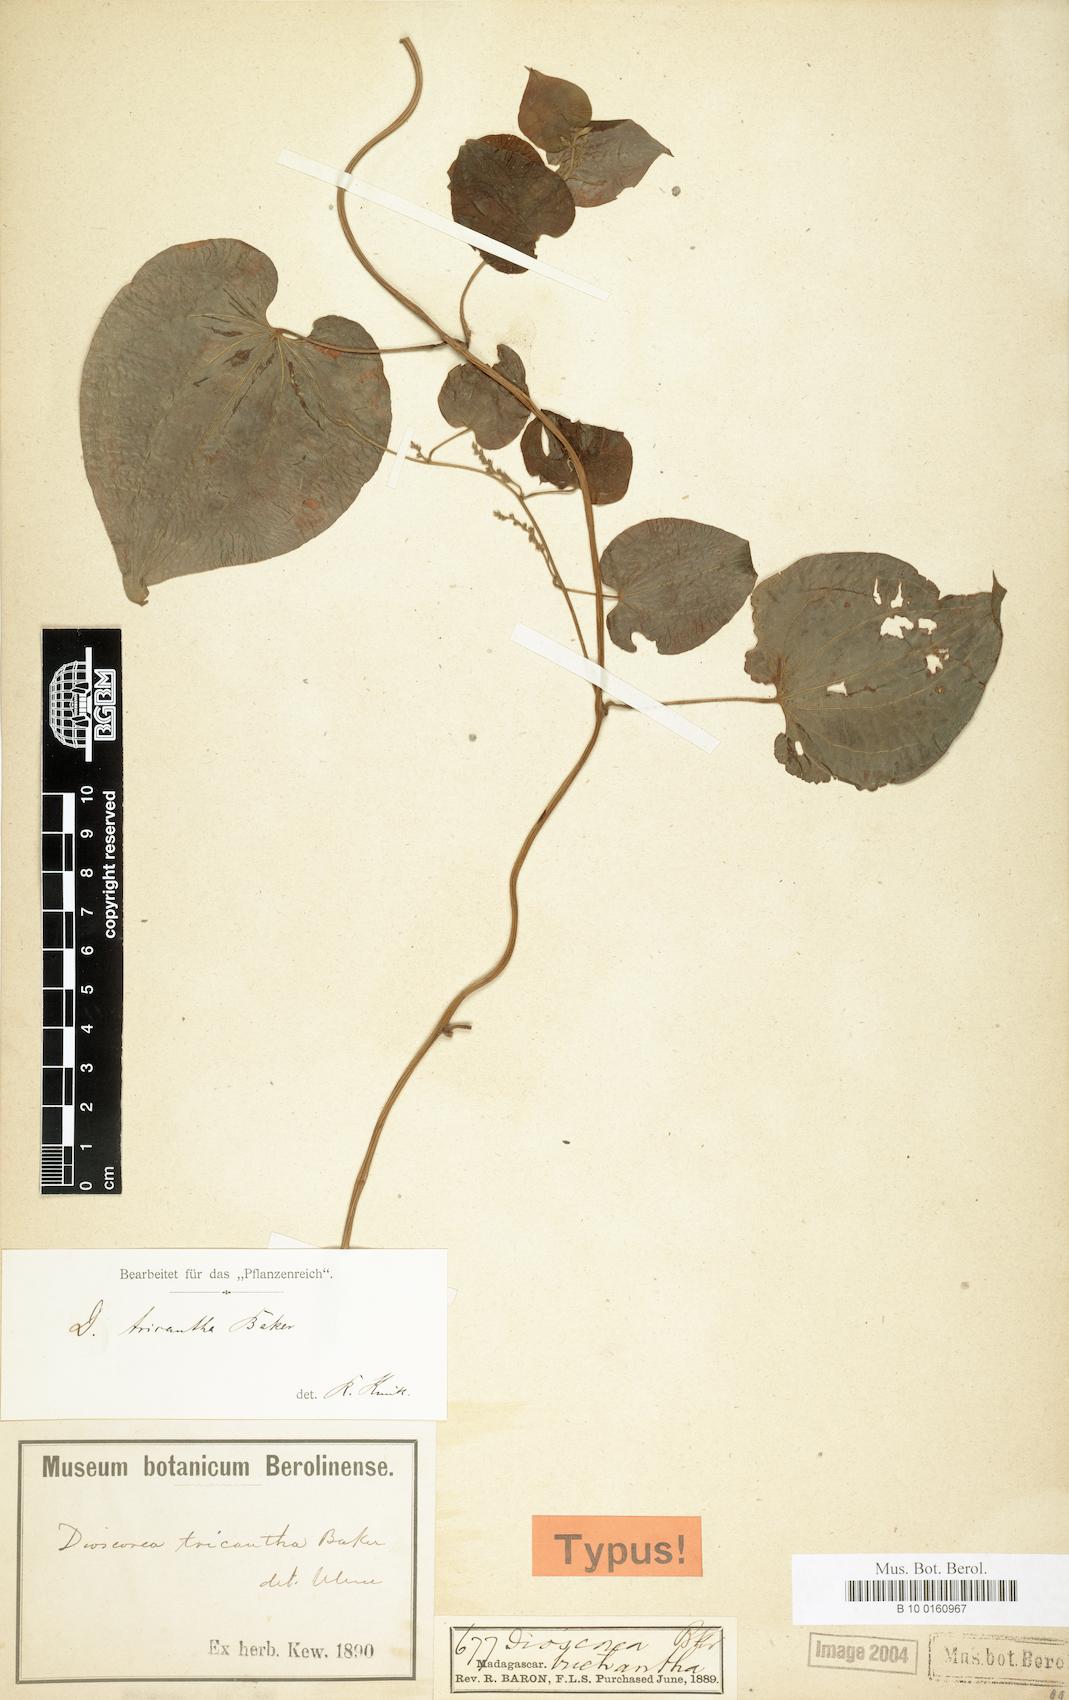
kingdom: Plantae
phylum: Tracheophyta
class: Liliopsida
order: Dioscoreales
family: Dioscoreaceae
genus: Dioscorea
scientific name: Dioscorea trichantha
